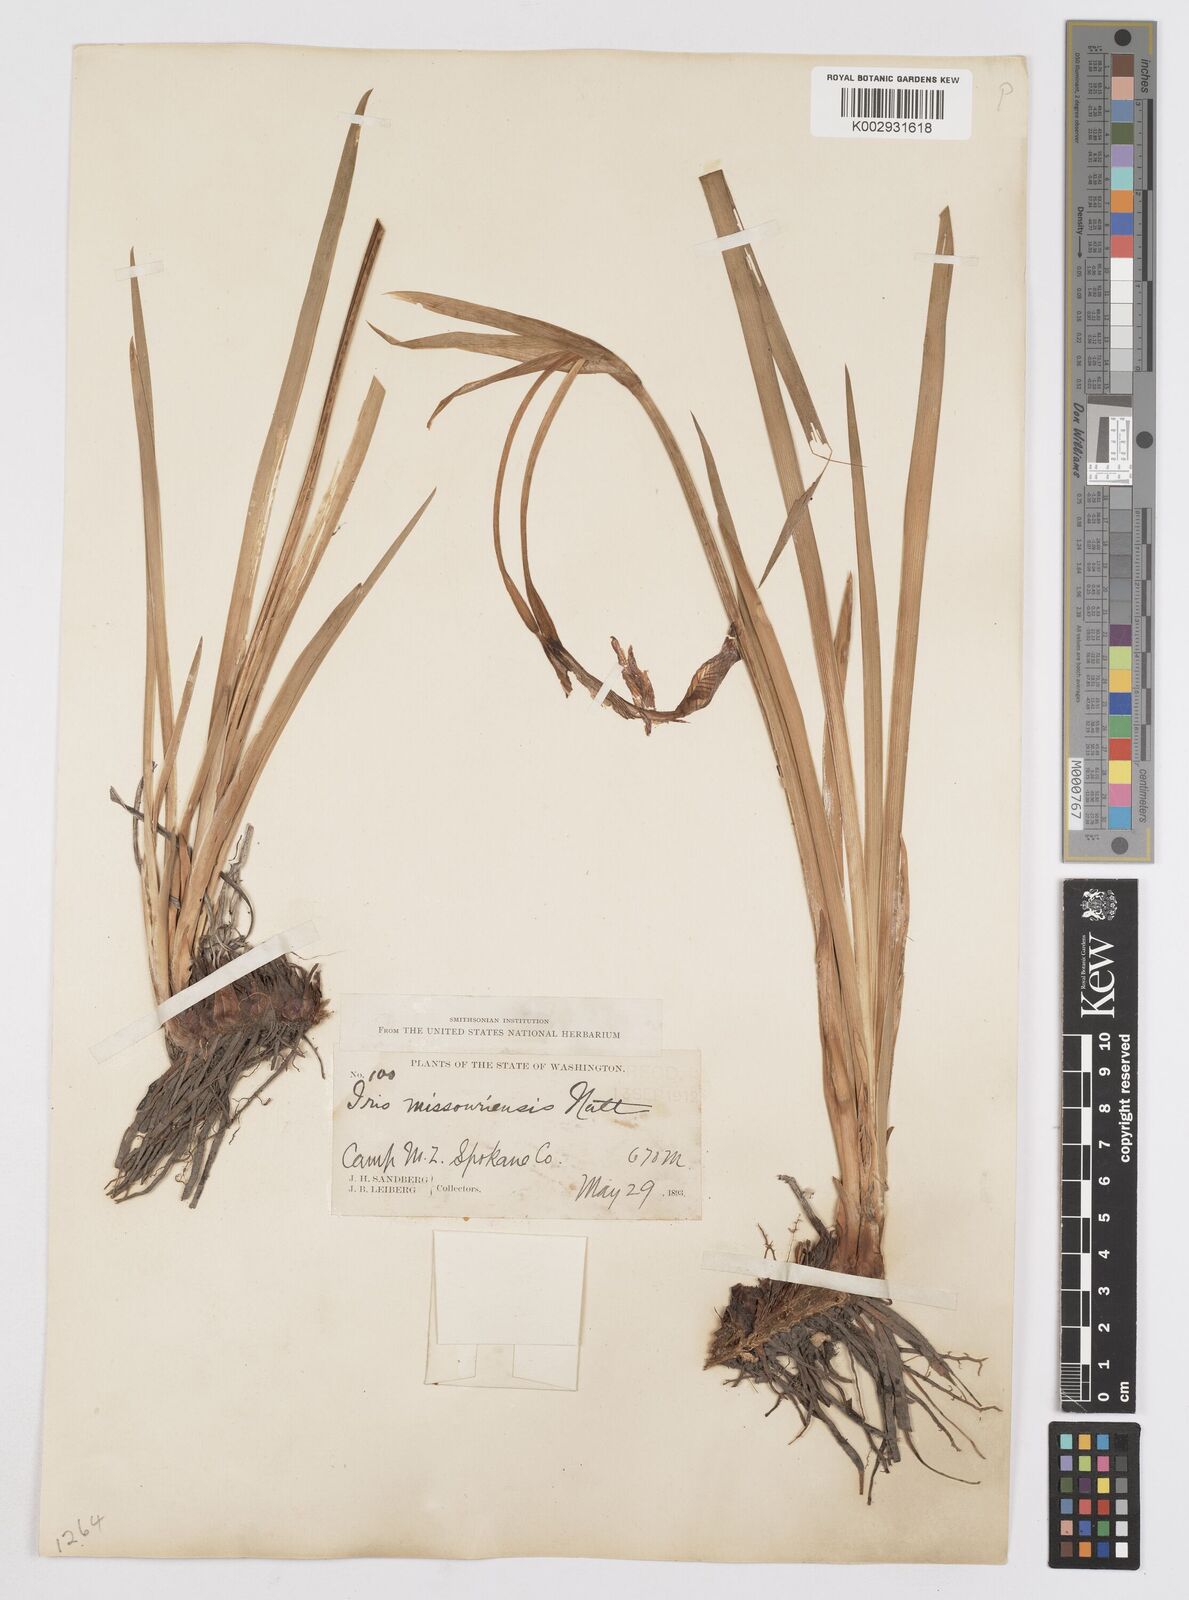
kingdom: Plantae
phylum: Tracheophyta
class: Liliopsida
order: Asparagales
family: Iridaceae
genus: Iris
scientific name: Iris missouriensis
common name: Rocky mountain iris
